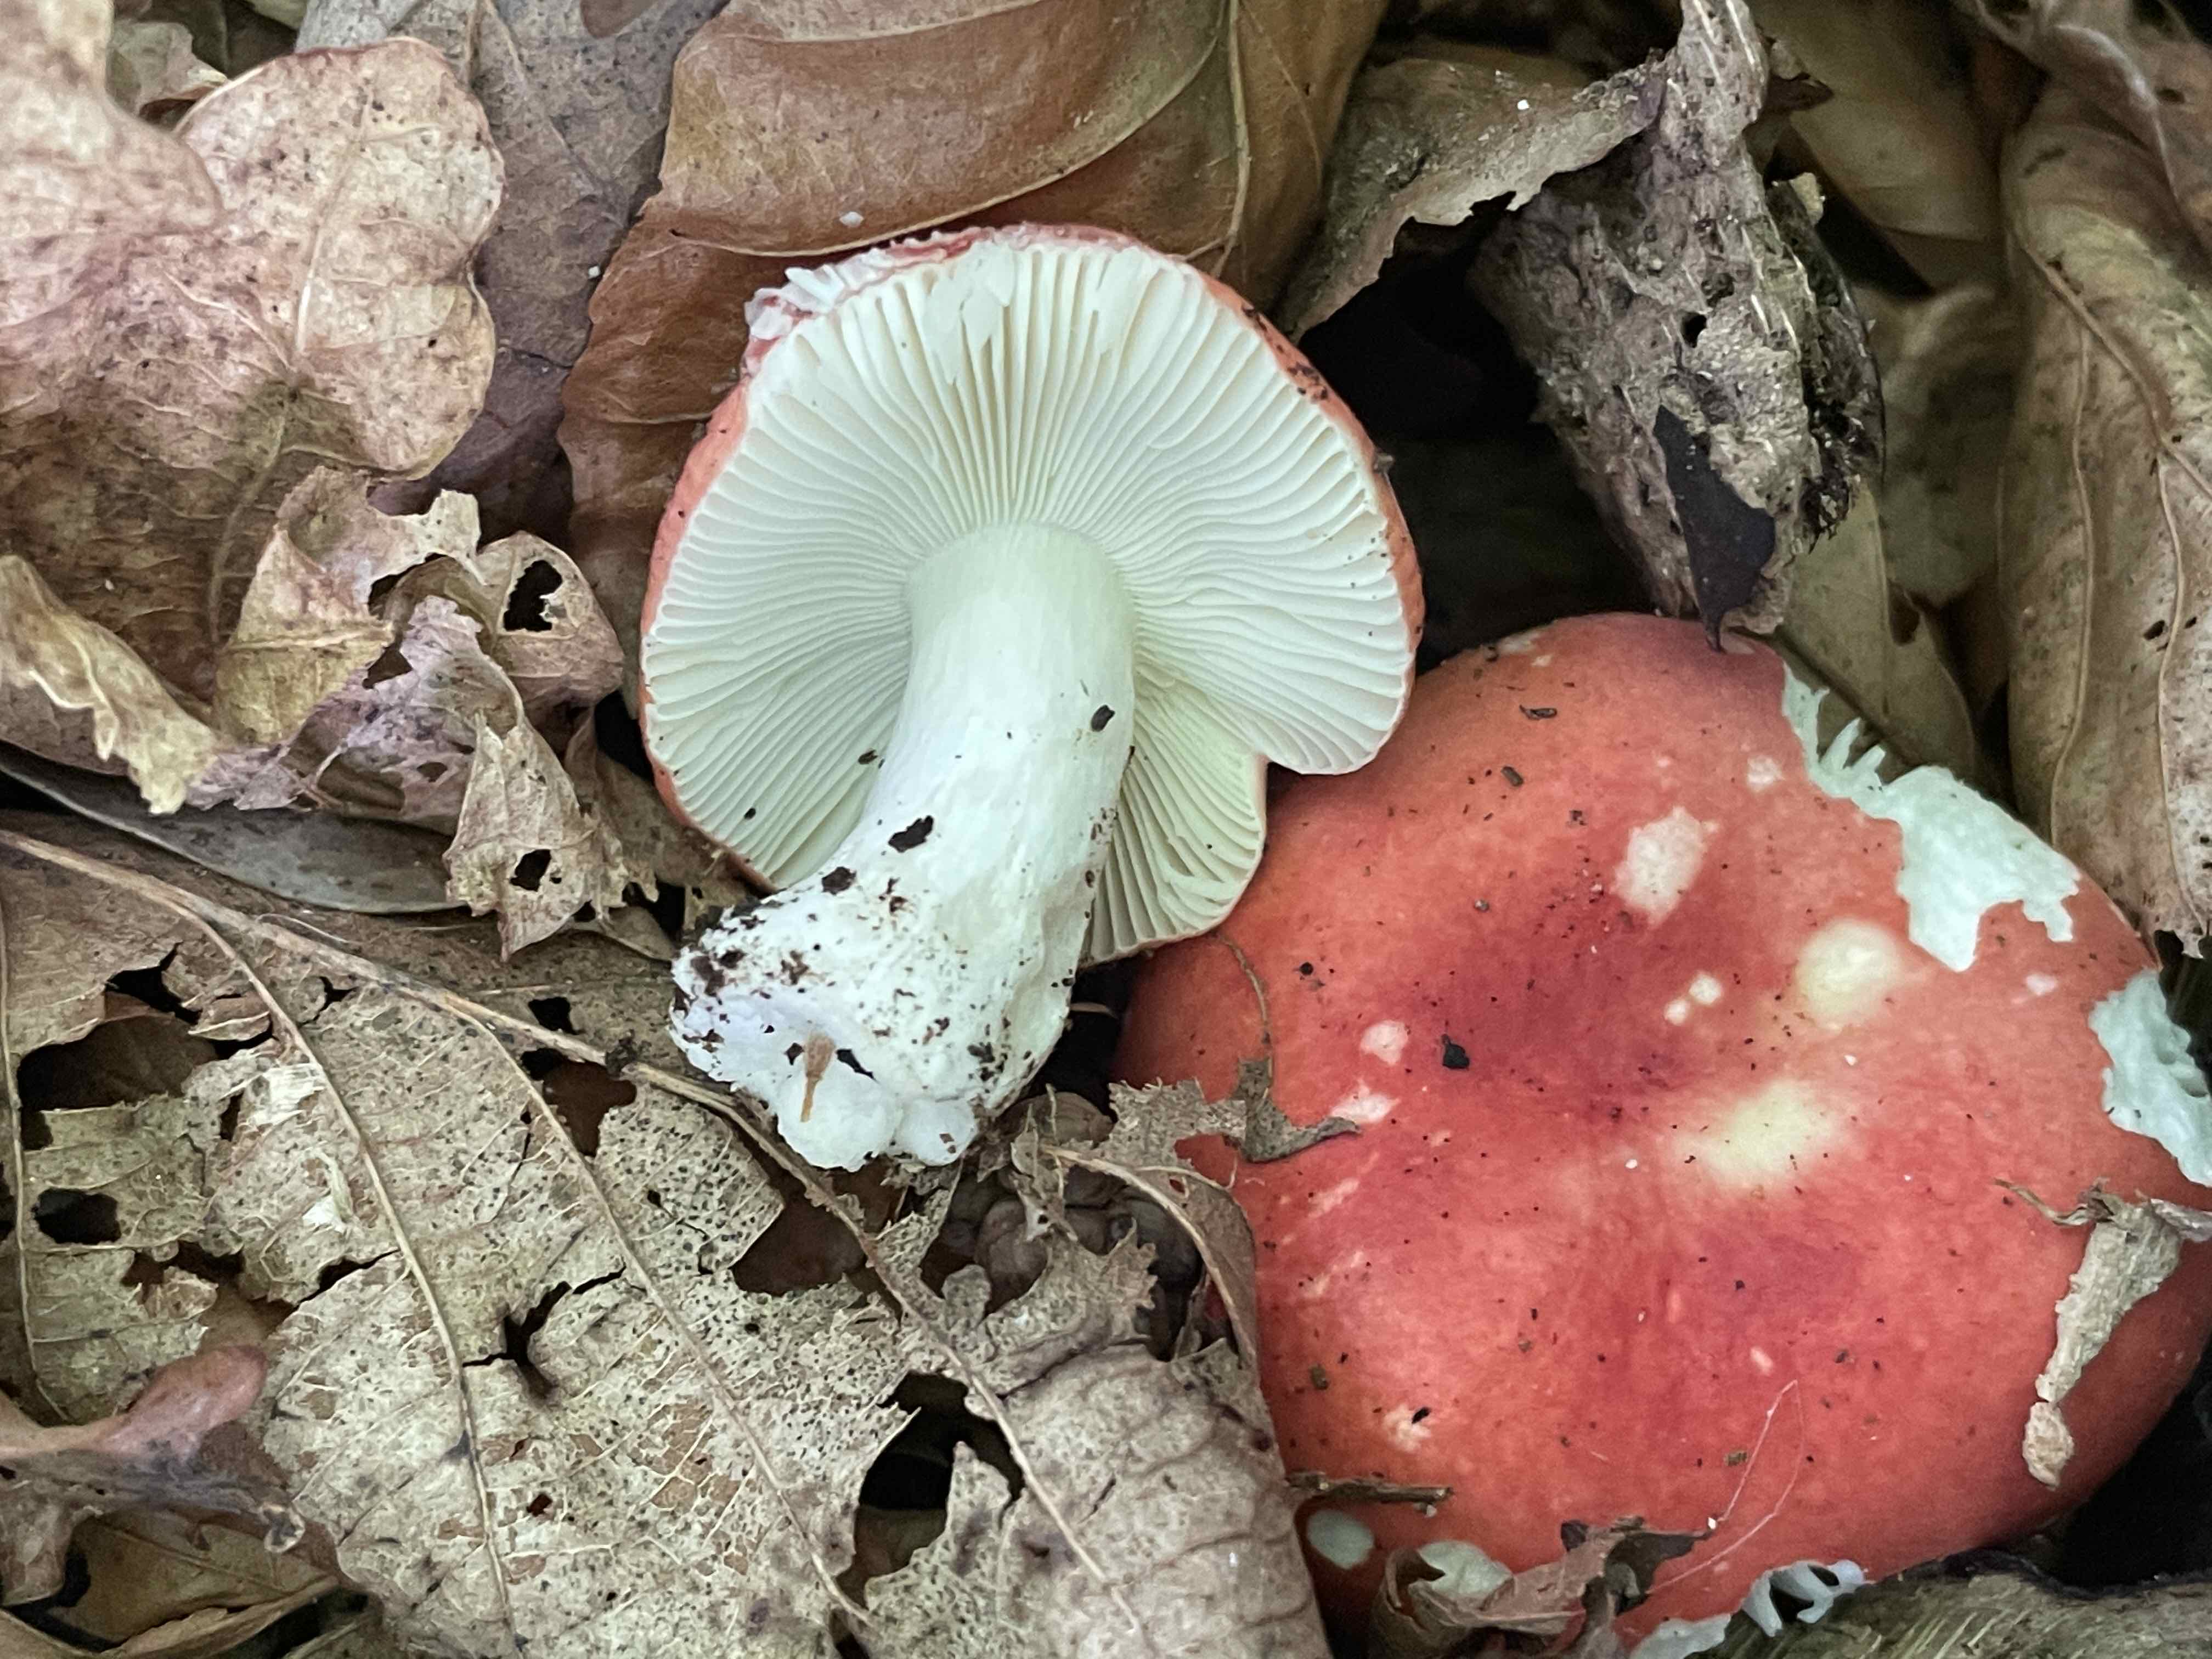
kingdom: Fungi
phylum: Basidiomycota
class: Agaricomycetes
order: Russulales
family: Russulaceae
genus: Russula
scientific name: Russula nobilis
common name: lille gift-skørhat
